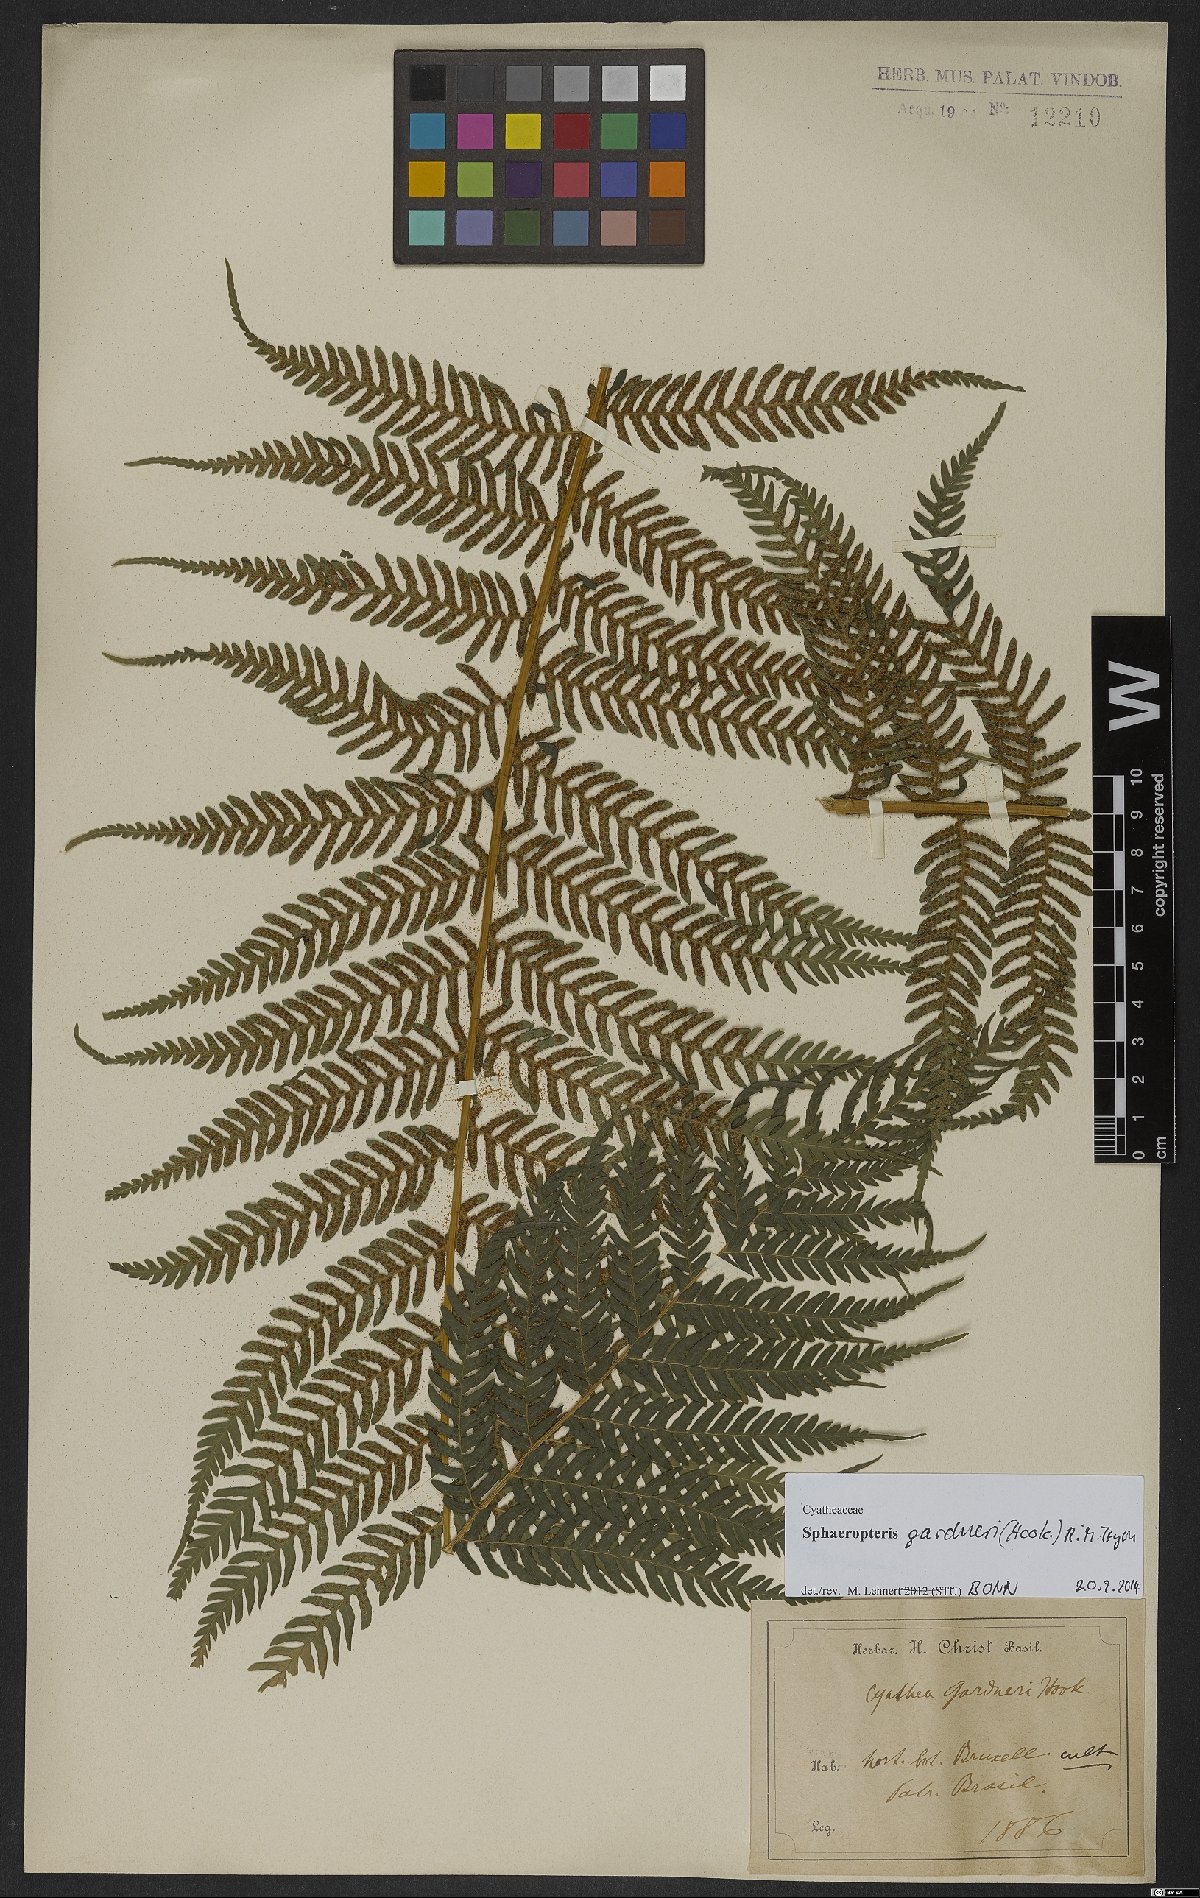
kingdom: Plantae
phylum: Tracheophyta
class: Polypodiopsida
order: Cyatheales
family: Cyatheaceae
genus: Sphaeropteris
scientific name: Sphaeropteris gardneri
